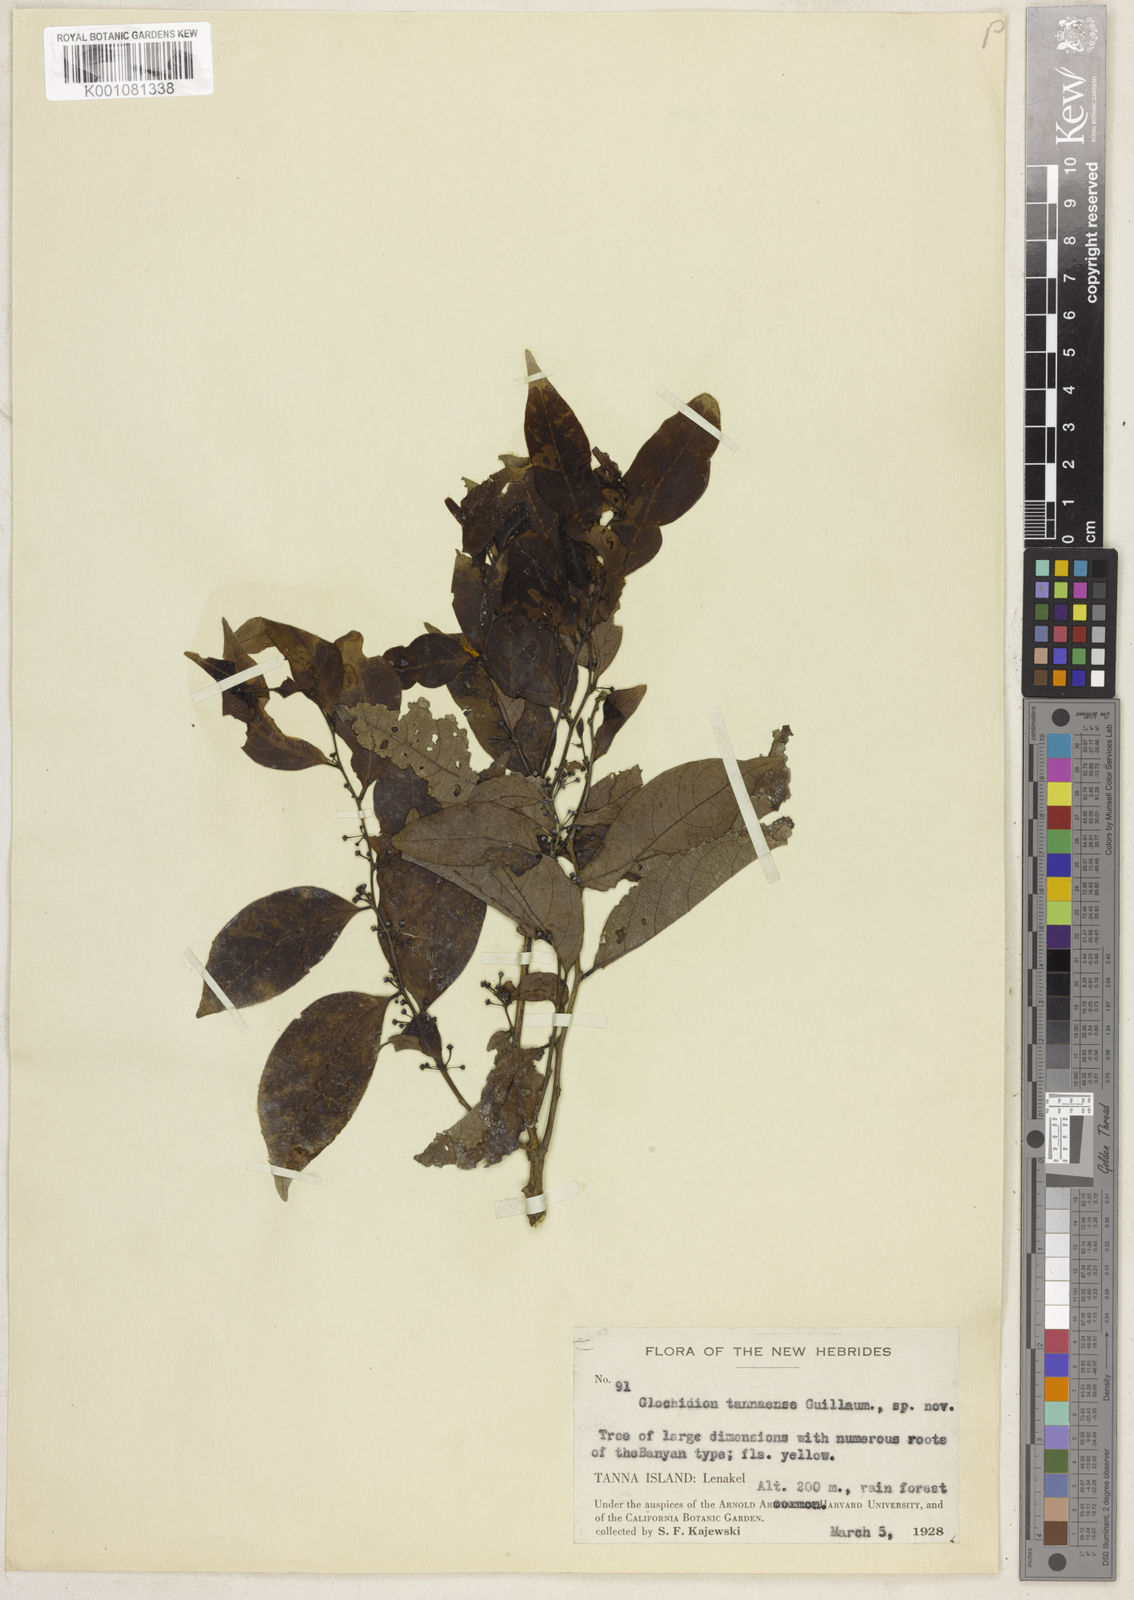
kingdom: Plantae
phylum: Tracheophyta
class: Magnoliopsida
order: Malpighiales
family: Phyllanthaceae
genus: Glochidion
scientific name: Glochidion ramiflorum
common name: Masame
